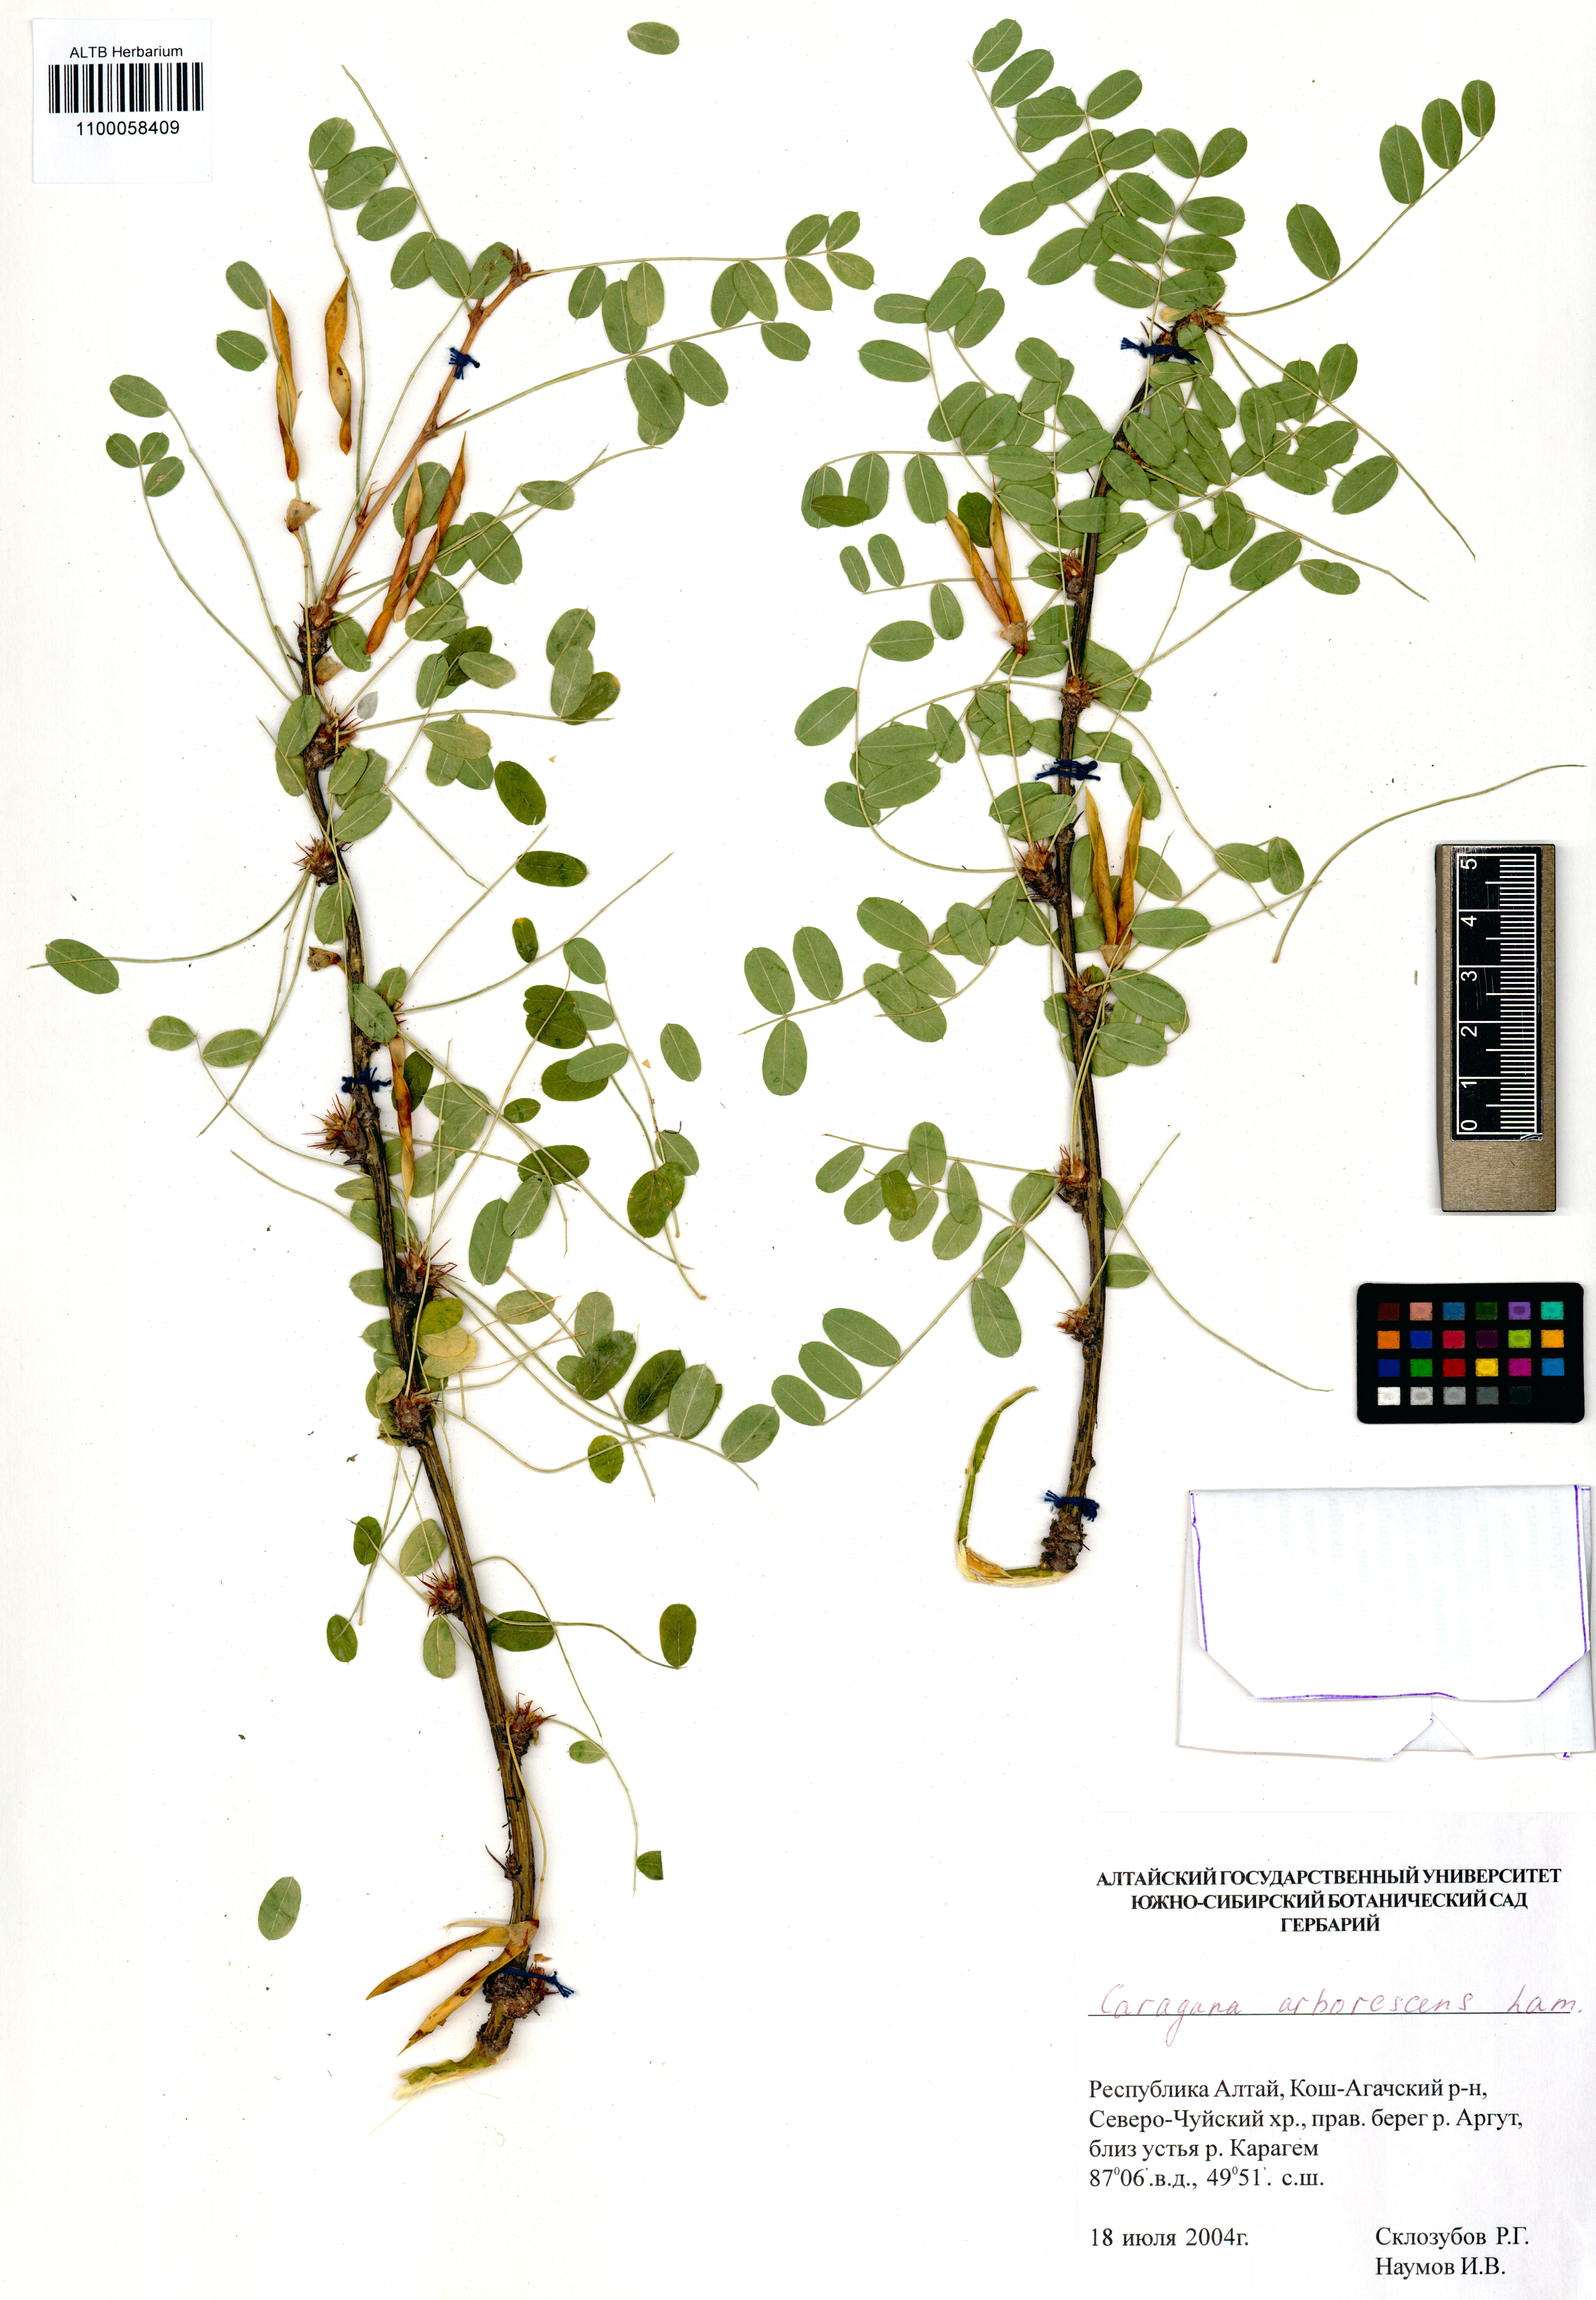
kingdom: Plantae
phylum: Tracheophyta
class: Magnoliopsida
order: Fabales
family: Fabaceae
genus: Caragana
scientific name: Caragana arborescens
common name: Siberian peashrub
